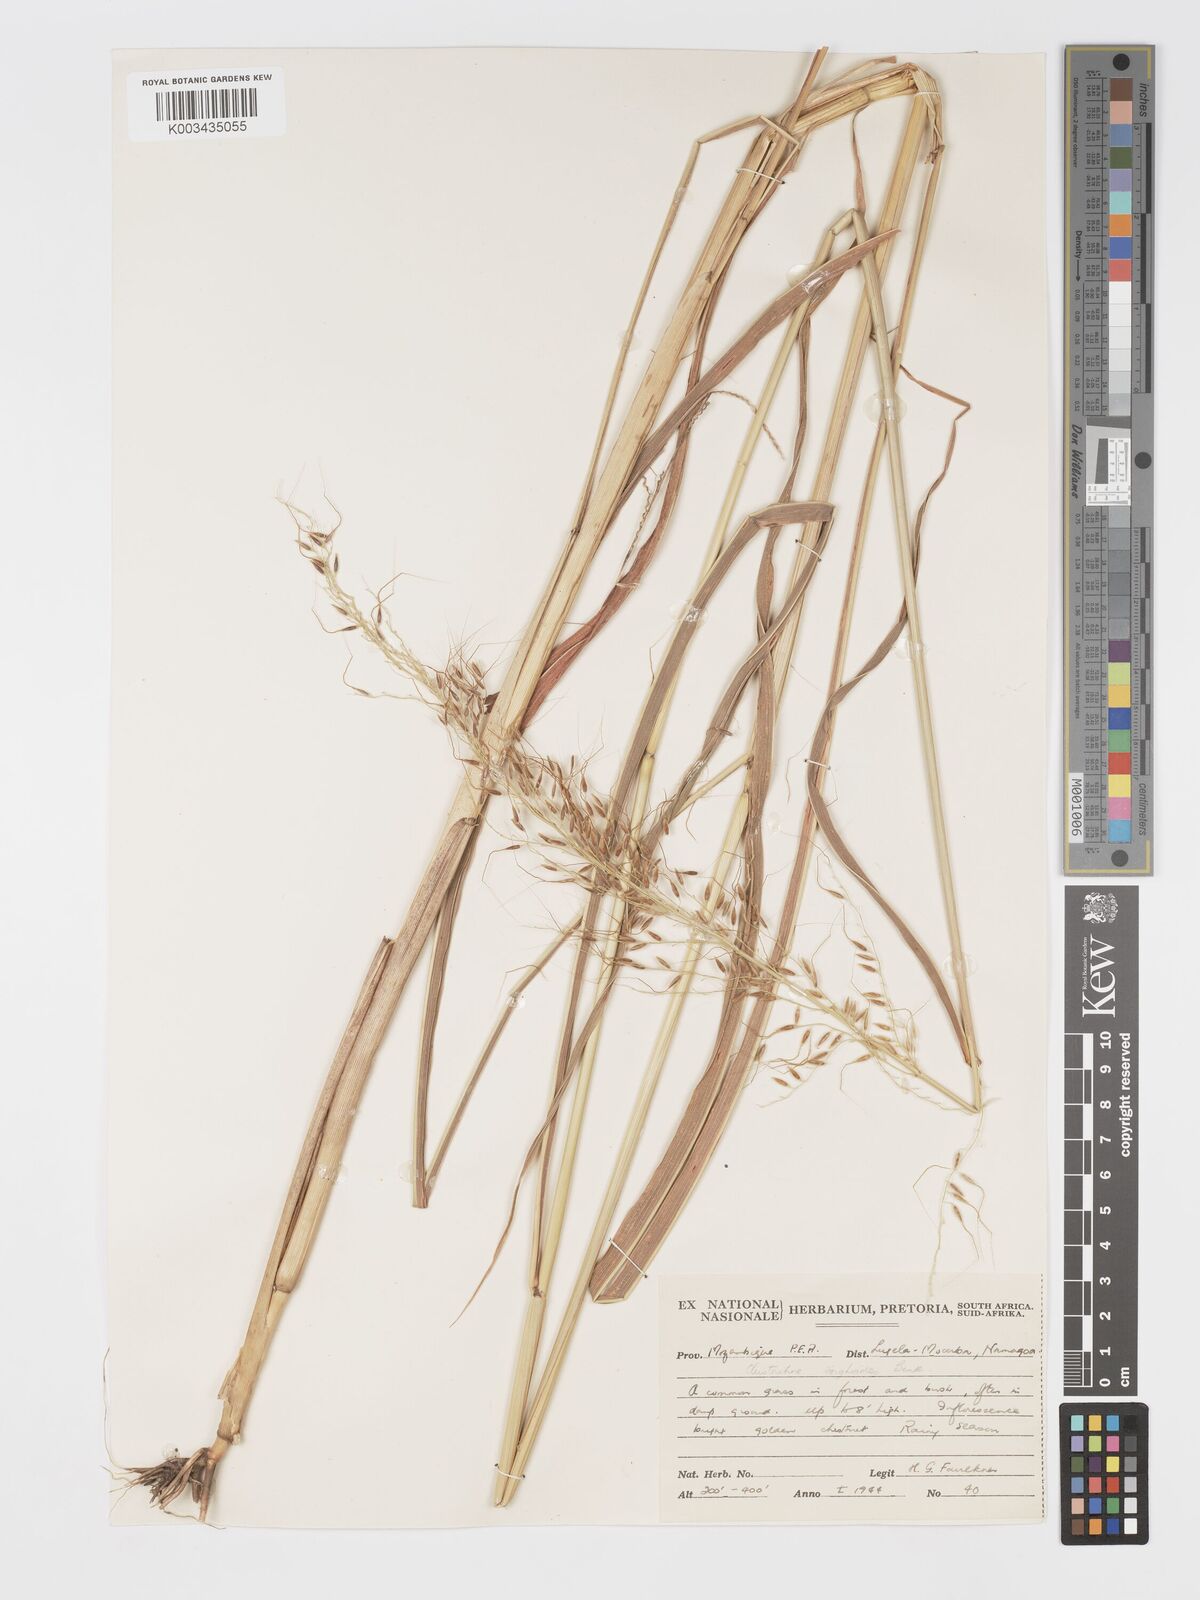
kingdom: Plantae
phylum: Tracheophyta
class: Liliopsida
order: Poales
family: Poaceae
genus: Cleistachne
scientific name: Cleistachne sorghoides
